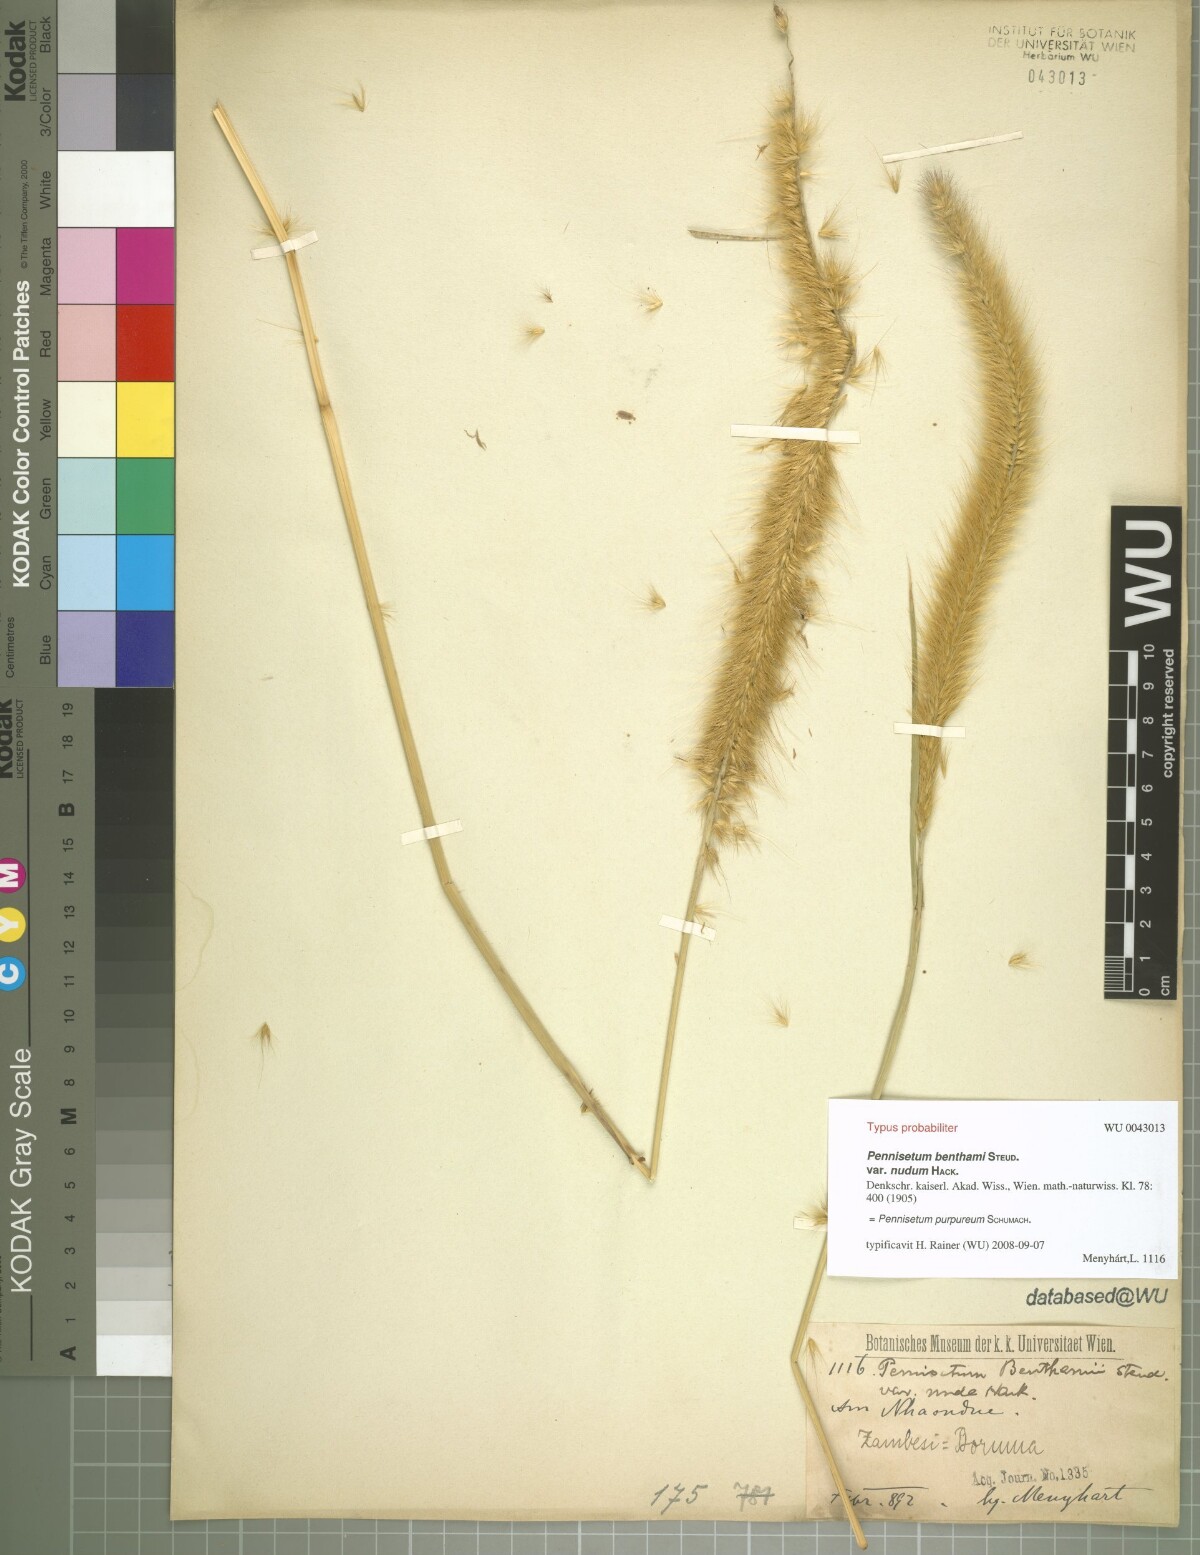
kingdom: Plantae
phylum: Tracheophyta
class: Liliopsida
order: Poales
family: Poaceae
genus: Cenchrus
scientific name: Cenchrus purpureus
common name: Elephant grass
